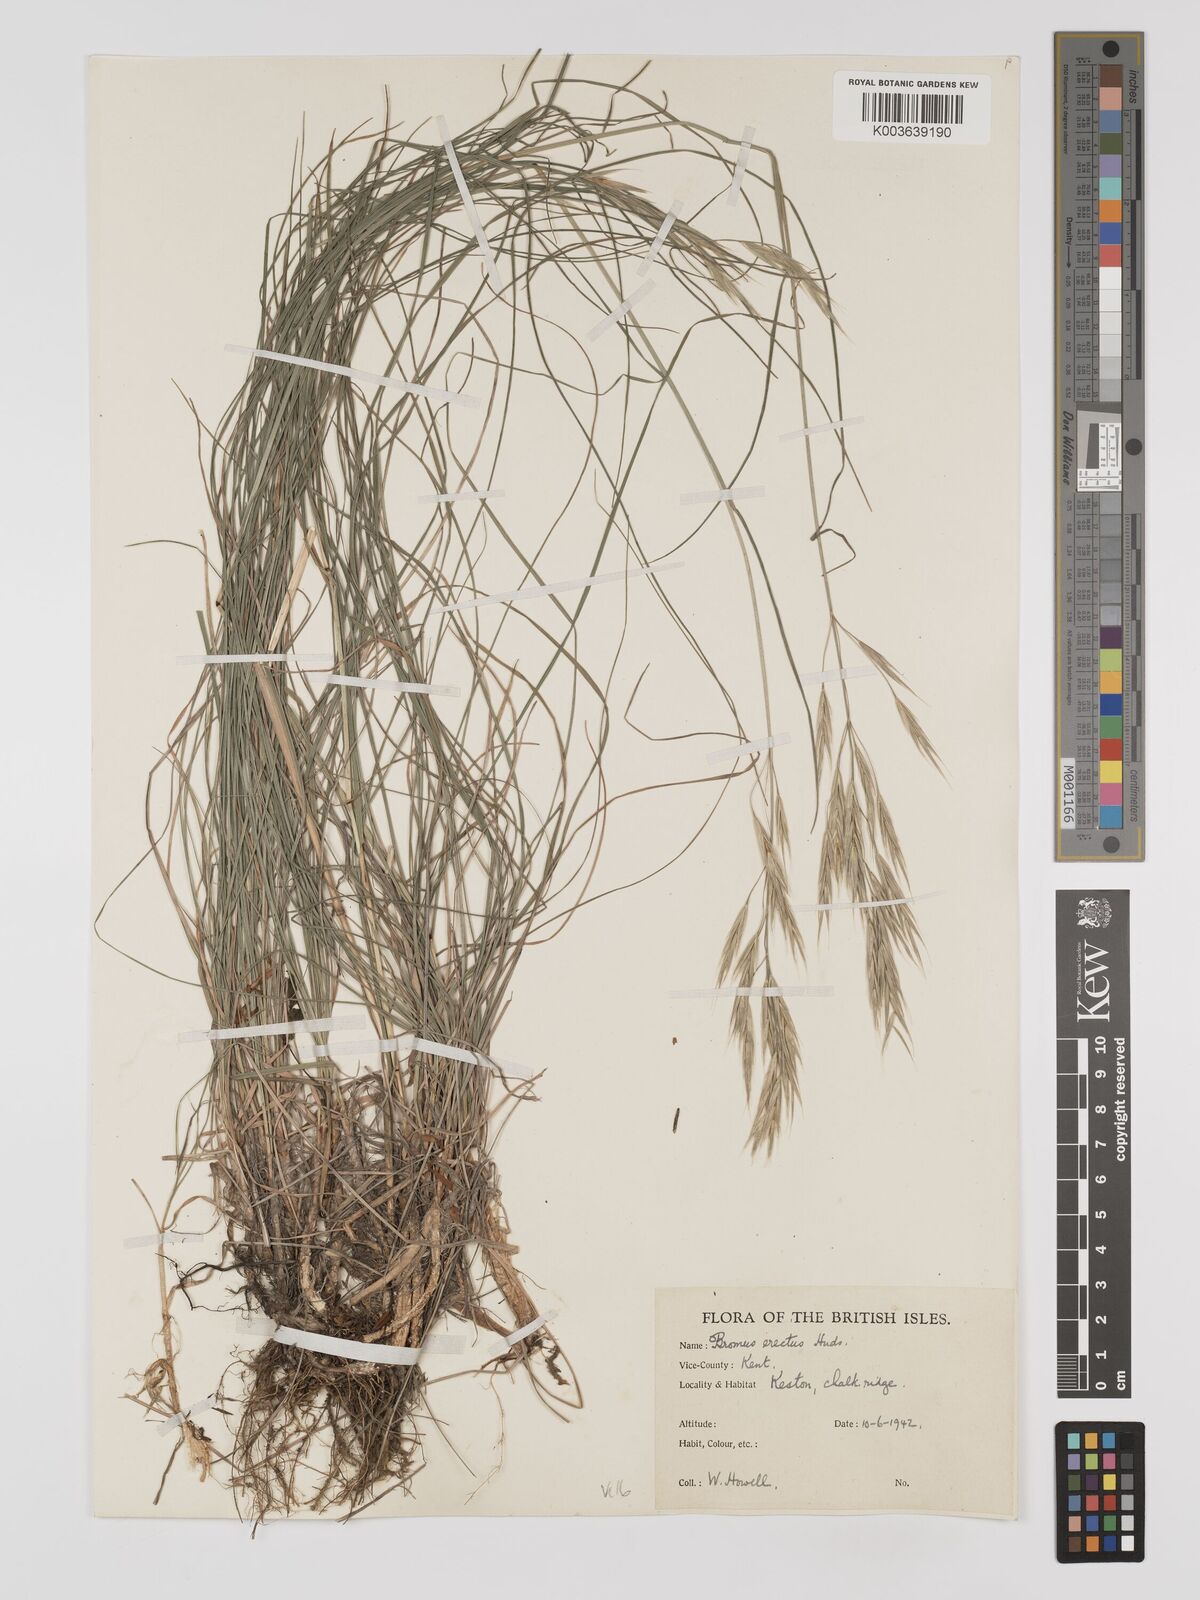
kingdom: Plantae
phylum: Tracheophyta
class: Liliopsida
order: Poales
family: Poaceae
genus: Bromus
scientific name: Bromus erectus
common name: Erect brome
